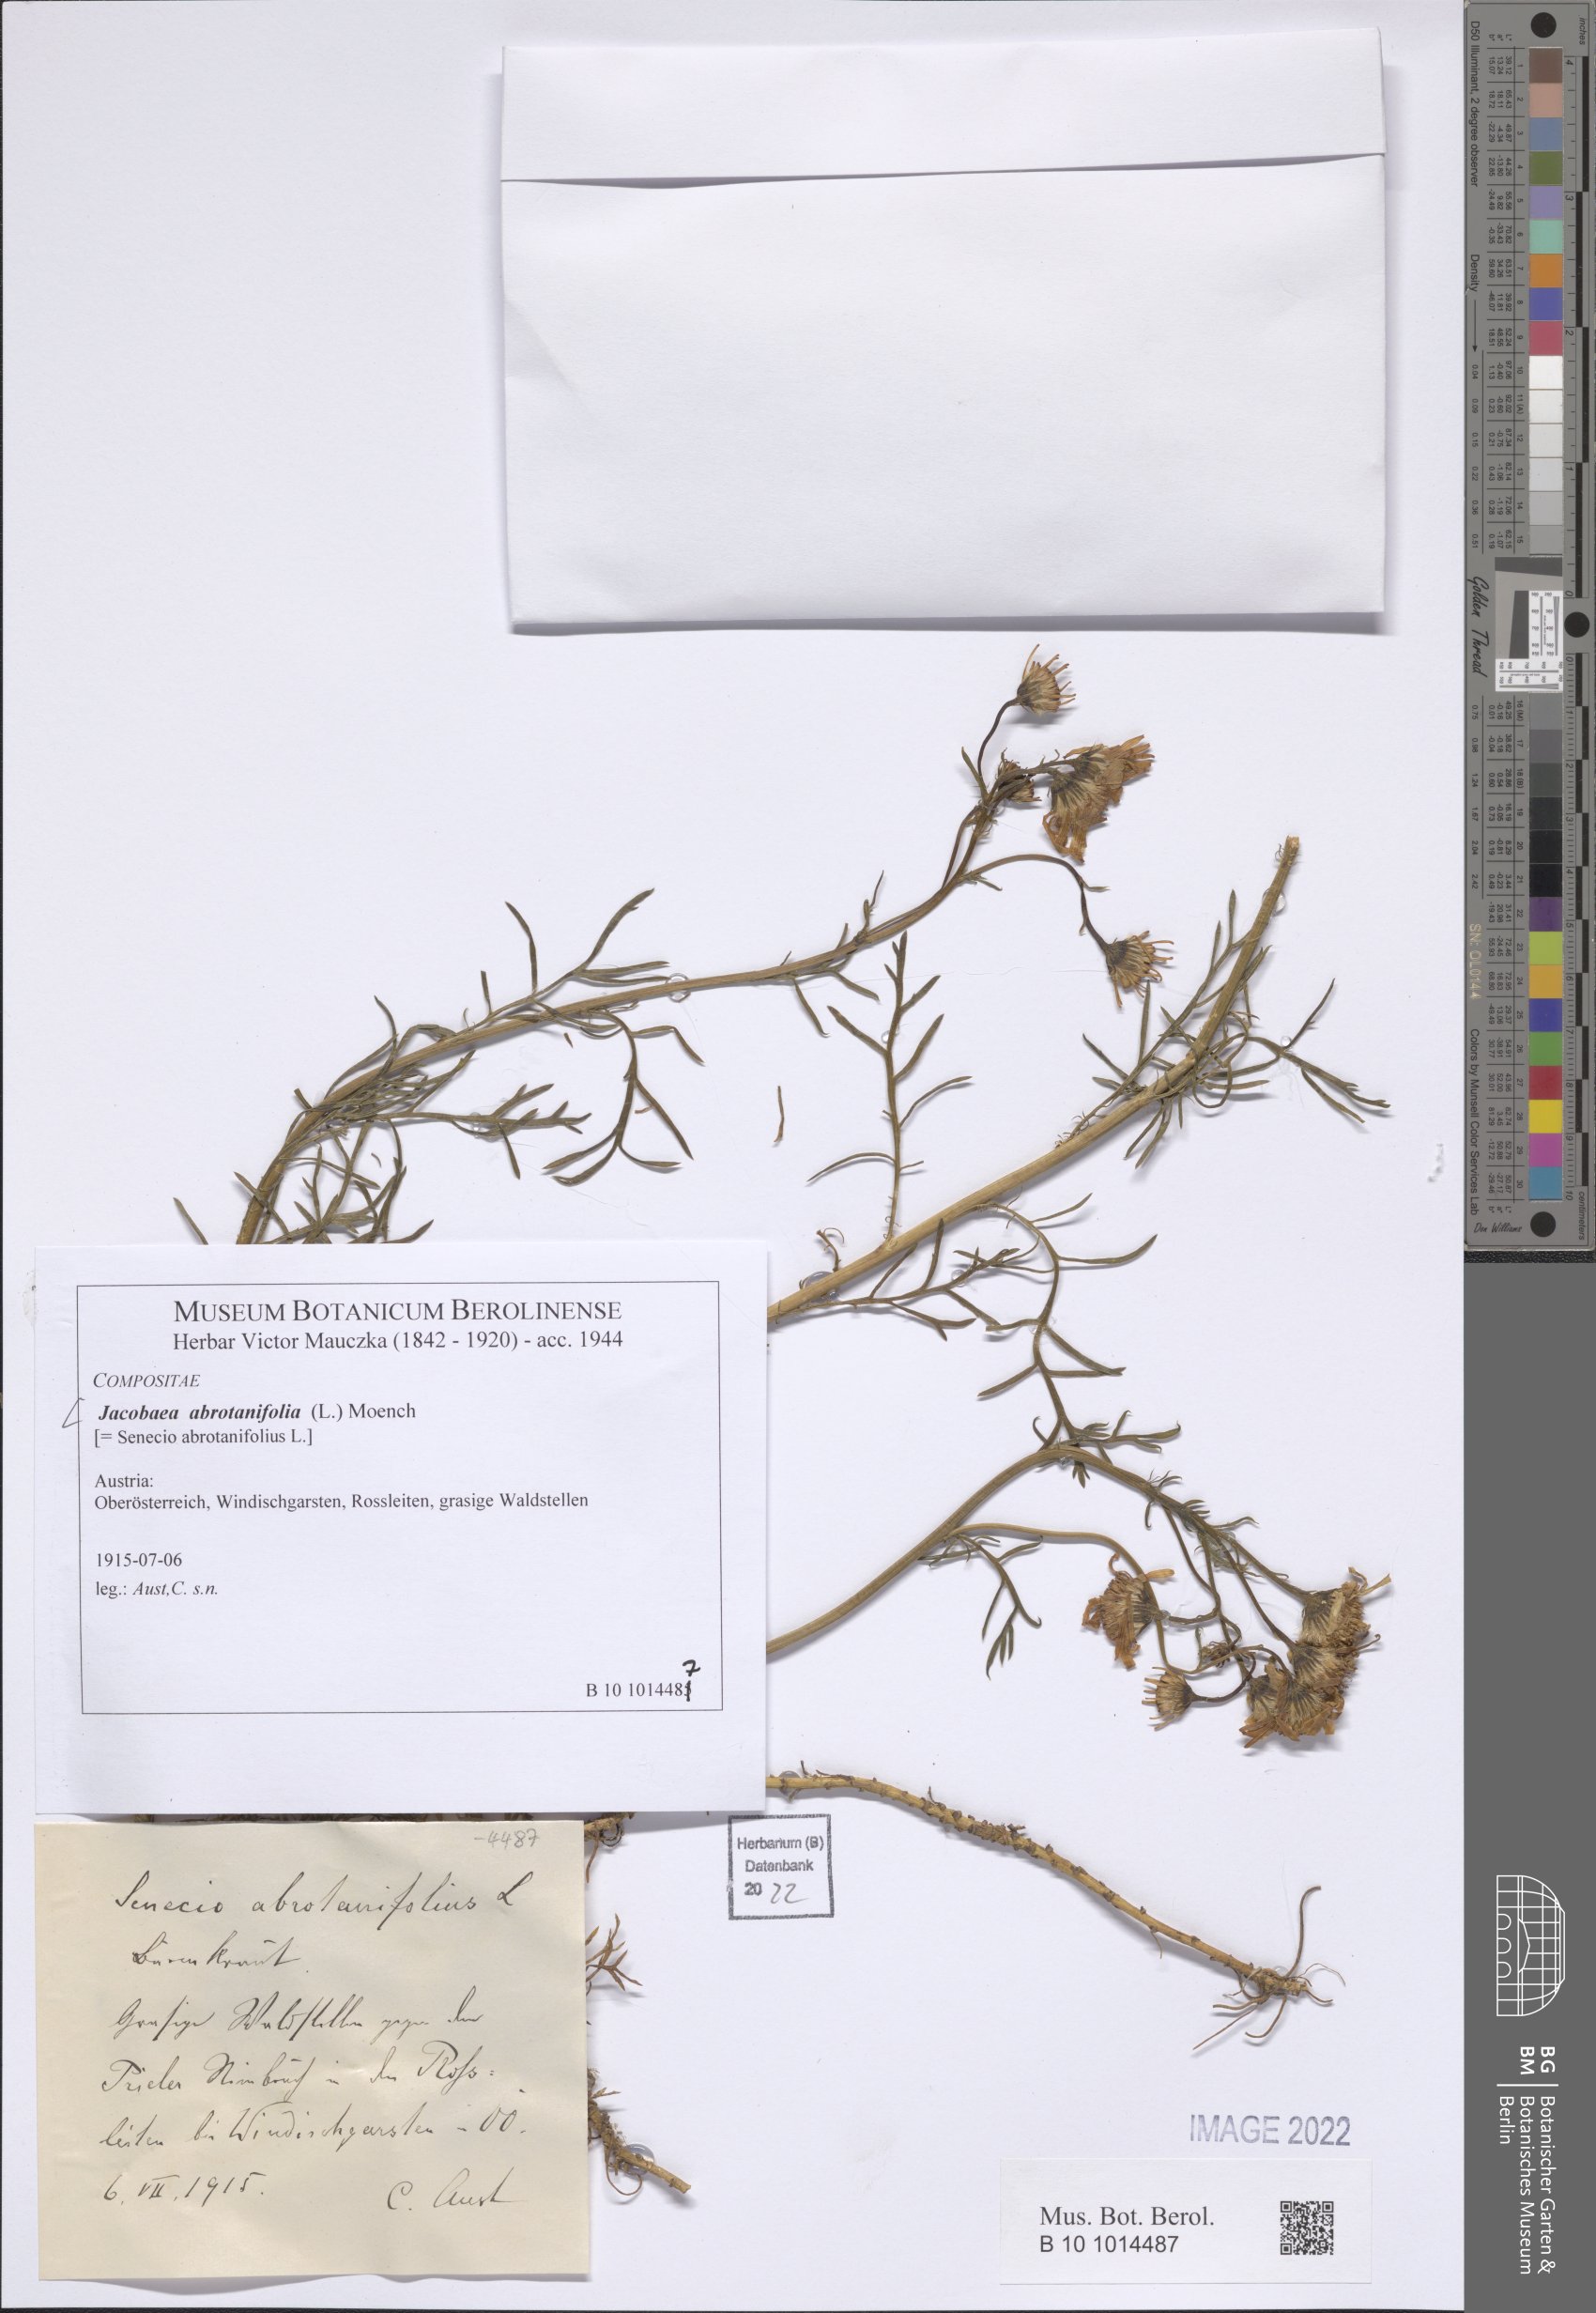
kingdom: Plantae
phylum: Tracheophyta
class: Magnoliopsida
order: Asterales
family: Asteraceae
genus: Jacobaea
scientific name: Jacobaea abrotanifolia
